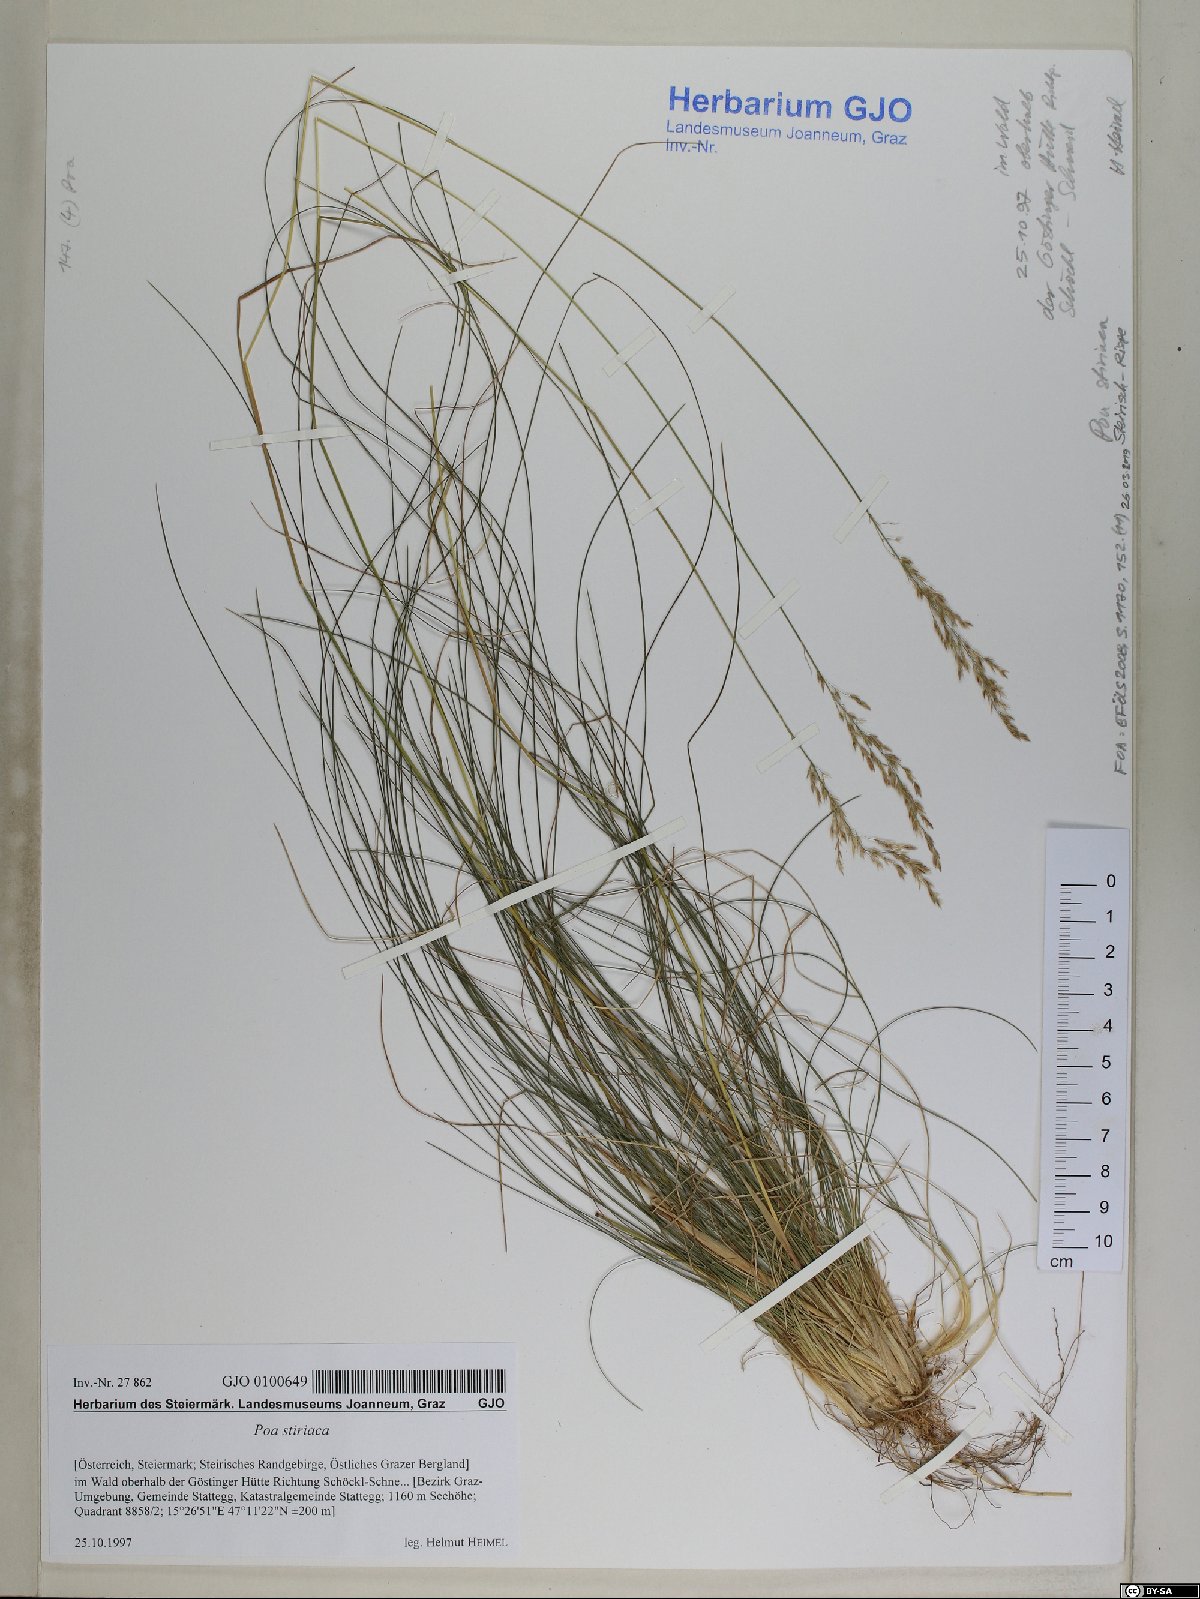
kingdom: Plantae
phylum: Tracheophyta
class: Liliopsida
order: Poales
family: Poaceae
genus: Poa
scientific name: Poa stiriaca
